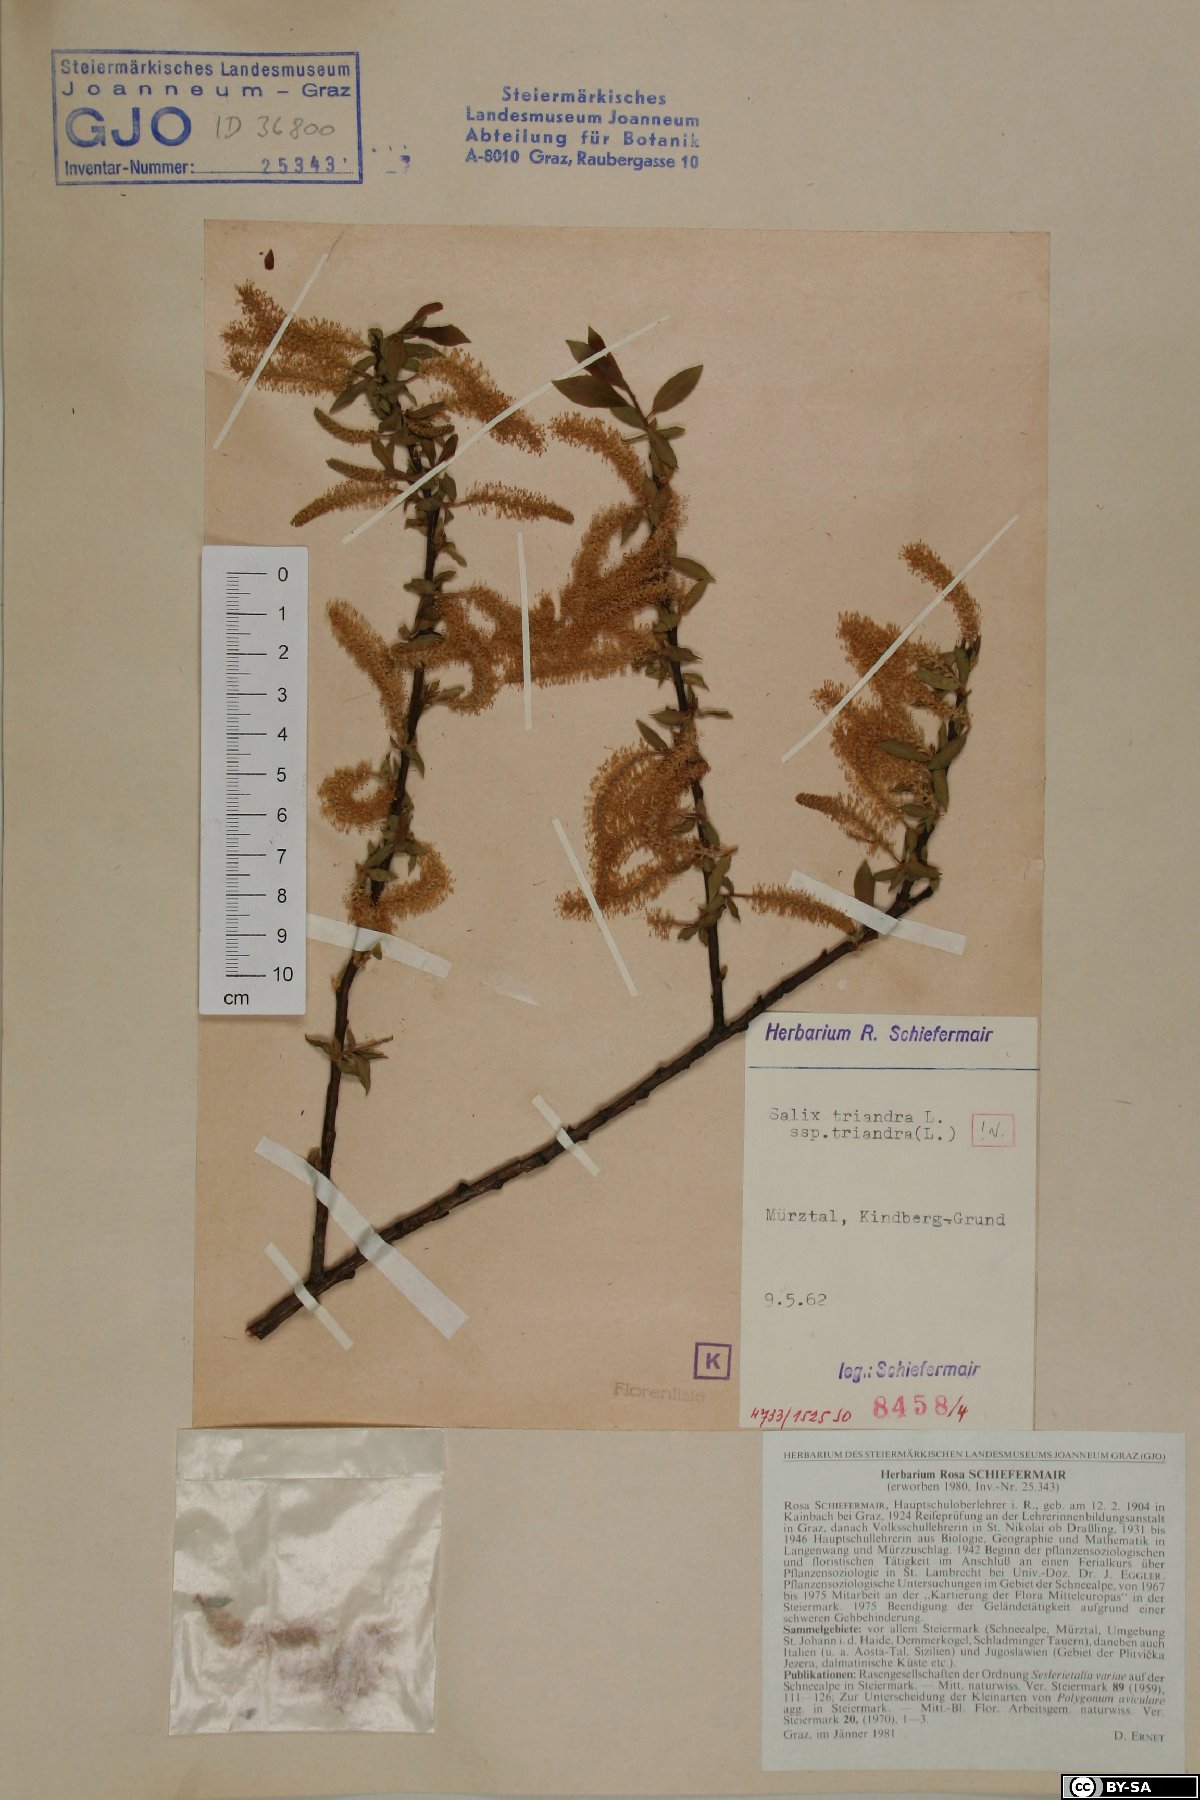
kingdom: Plantae
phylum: Tracheophyta
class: Magnoliopsida
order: Malpighiales
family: Salicaceae
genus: Salix
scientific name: Salix triandra
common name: Almond willow
